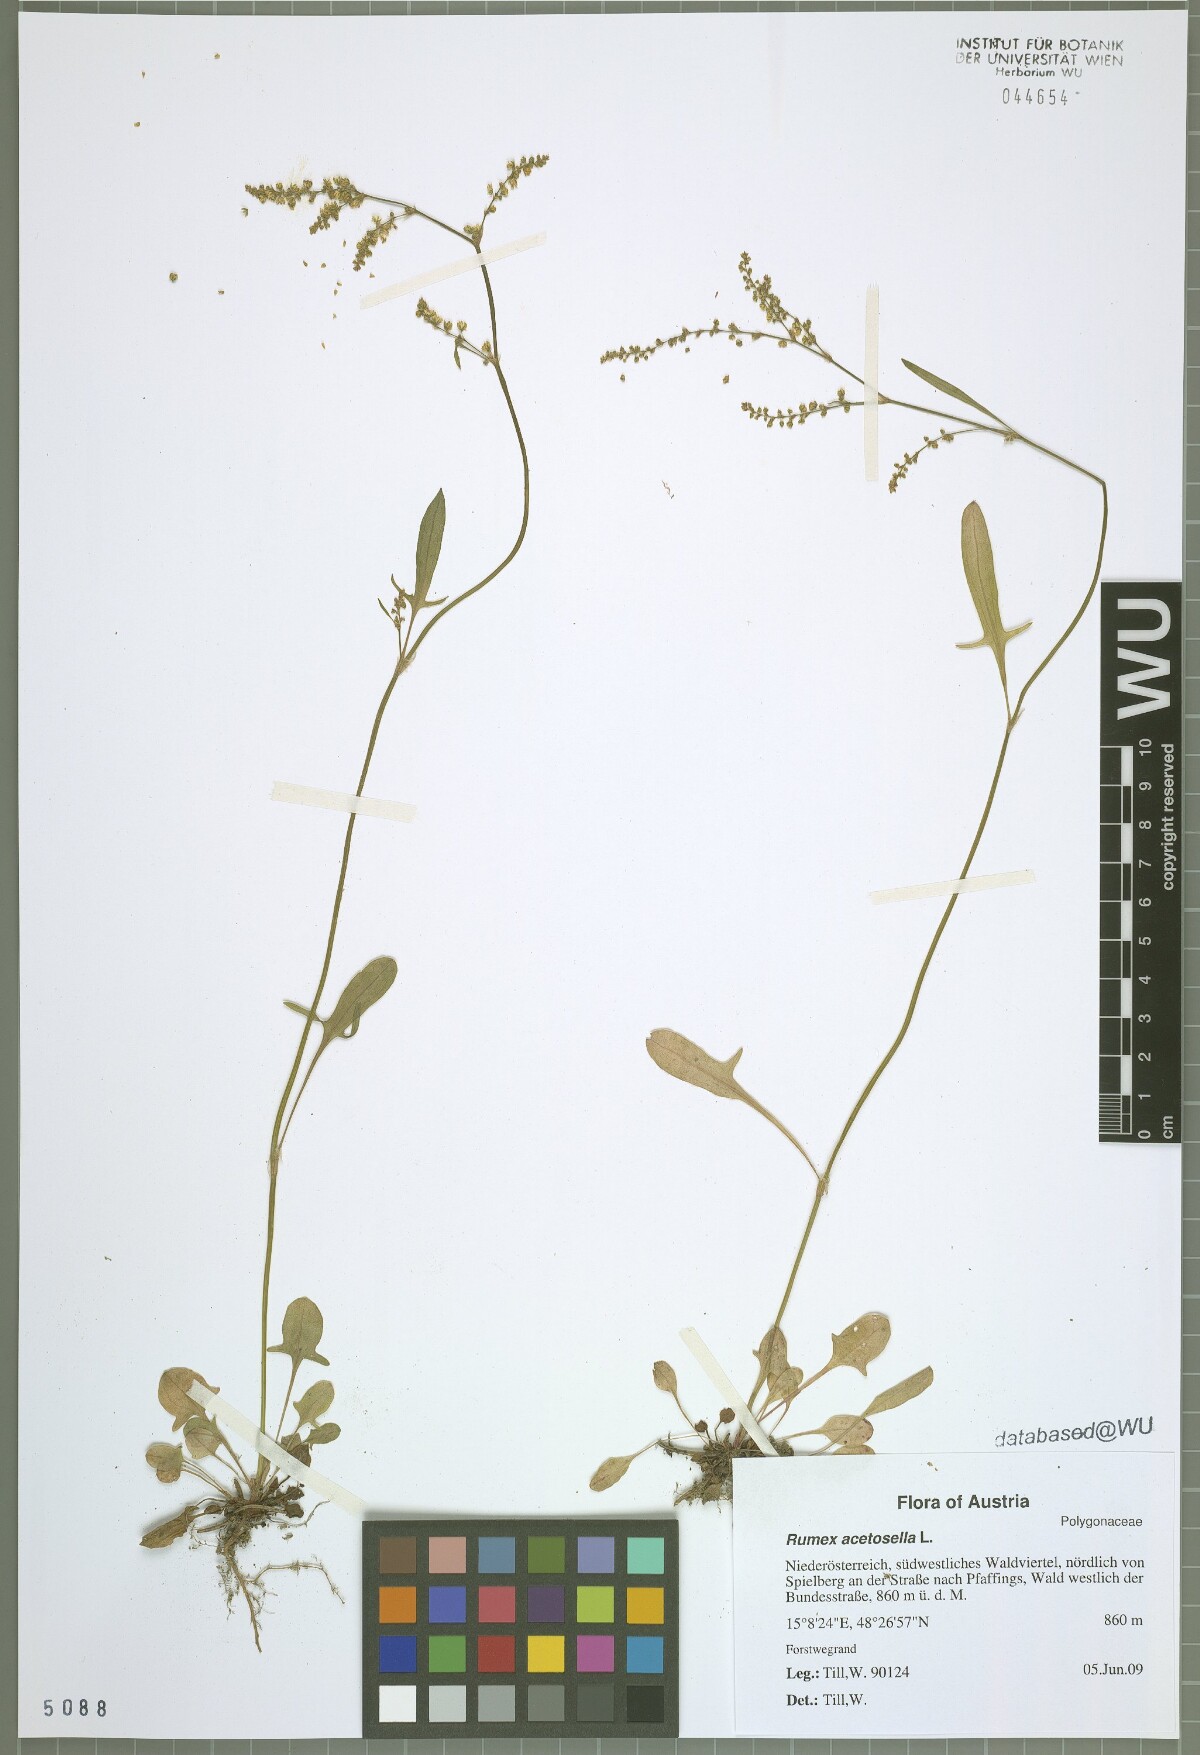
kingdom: Plantae
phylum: Tracheophyta
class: Magnoliopsida
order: Caryophyllales
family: Polygonaceae
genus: Rumex
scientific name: Rumex acetosella
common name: Common sheep sorrel
